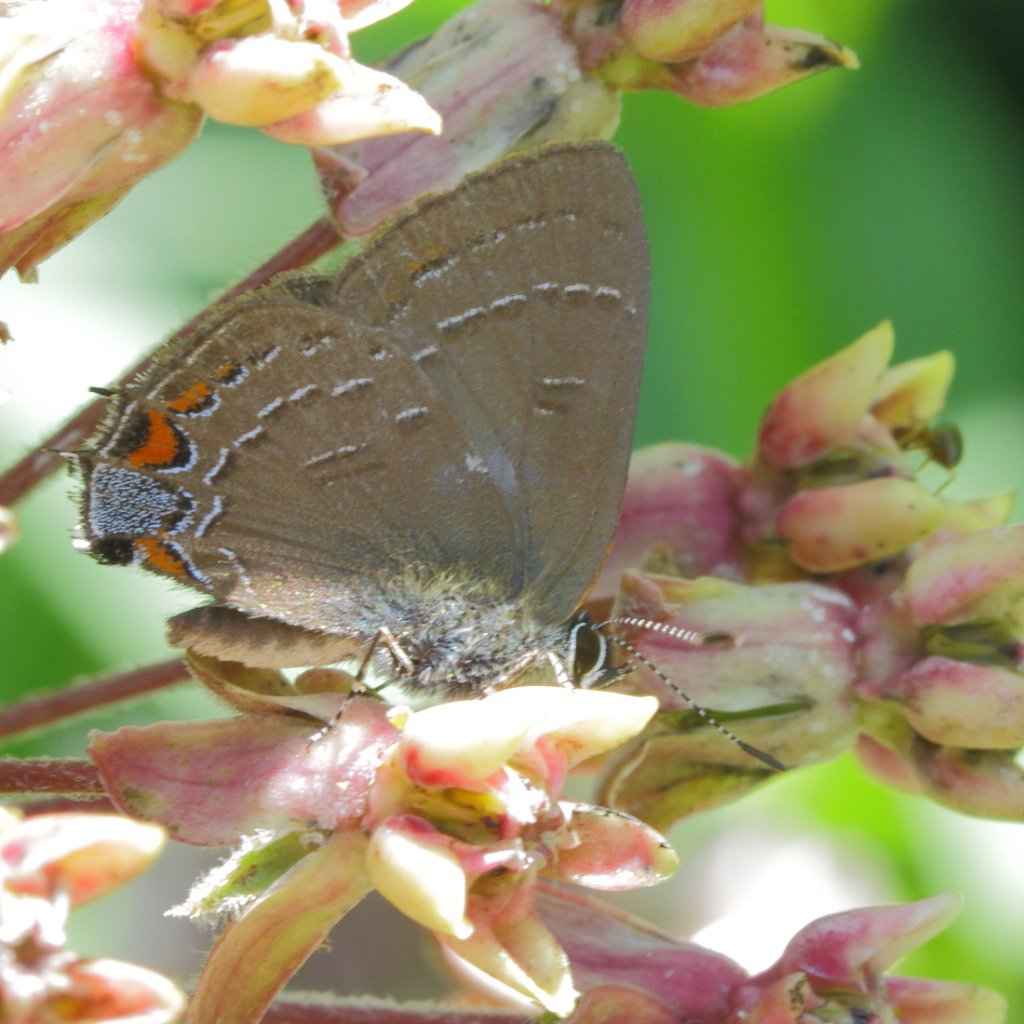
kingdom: Animalia
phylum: Arthropoda
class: Insecta
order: Lepidoptera
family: Lycaenidae
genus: Satyrium
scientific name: Satyrium calanus
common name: Banded Hairstreak
